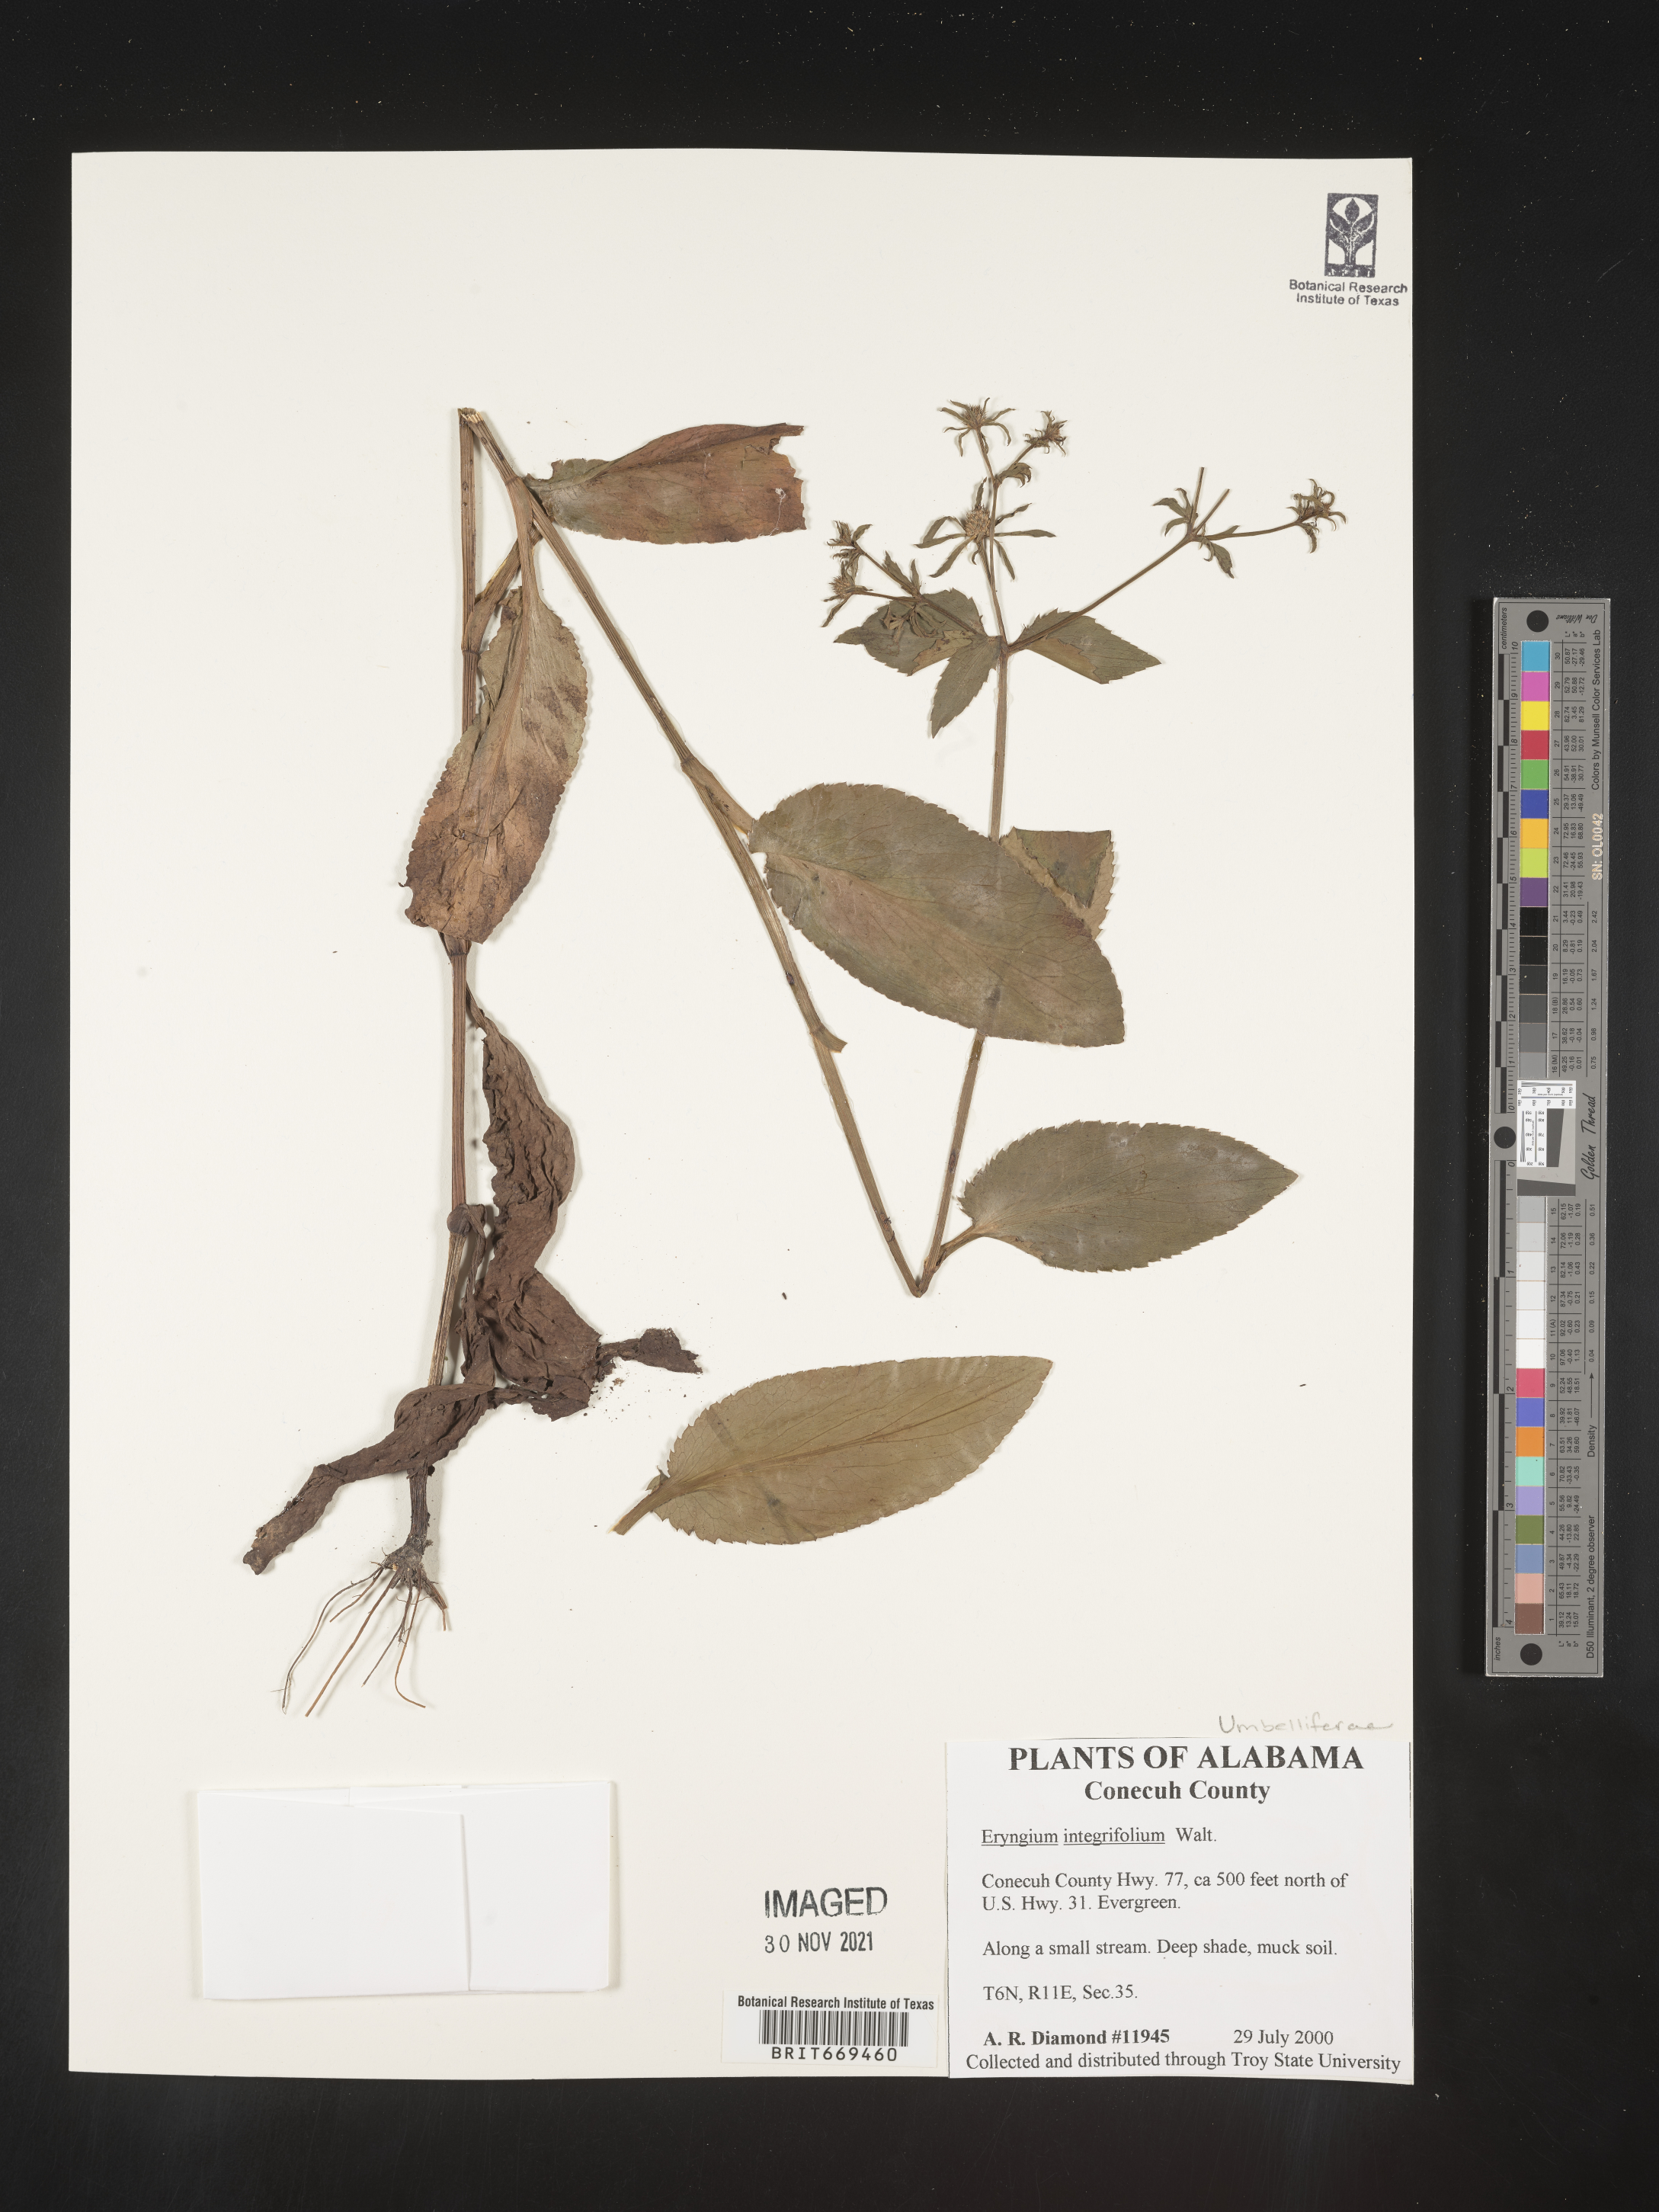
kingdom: Plantae
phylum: Tracheophyta
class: Magnoliopsida
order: Apiales
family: Apiaceae
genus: Eryngium
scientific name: Eryngium integrifolium
